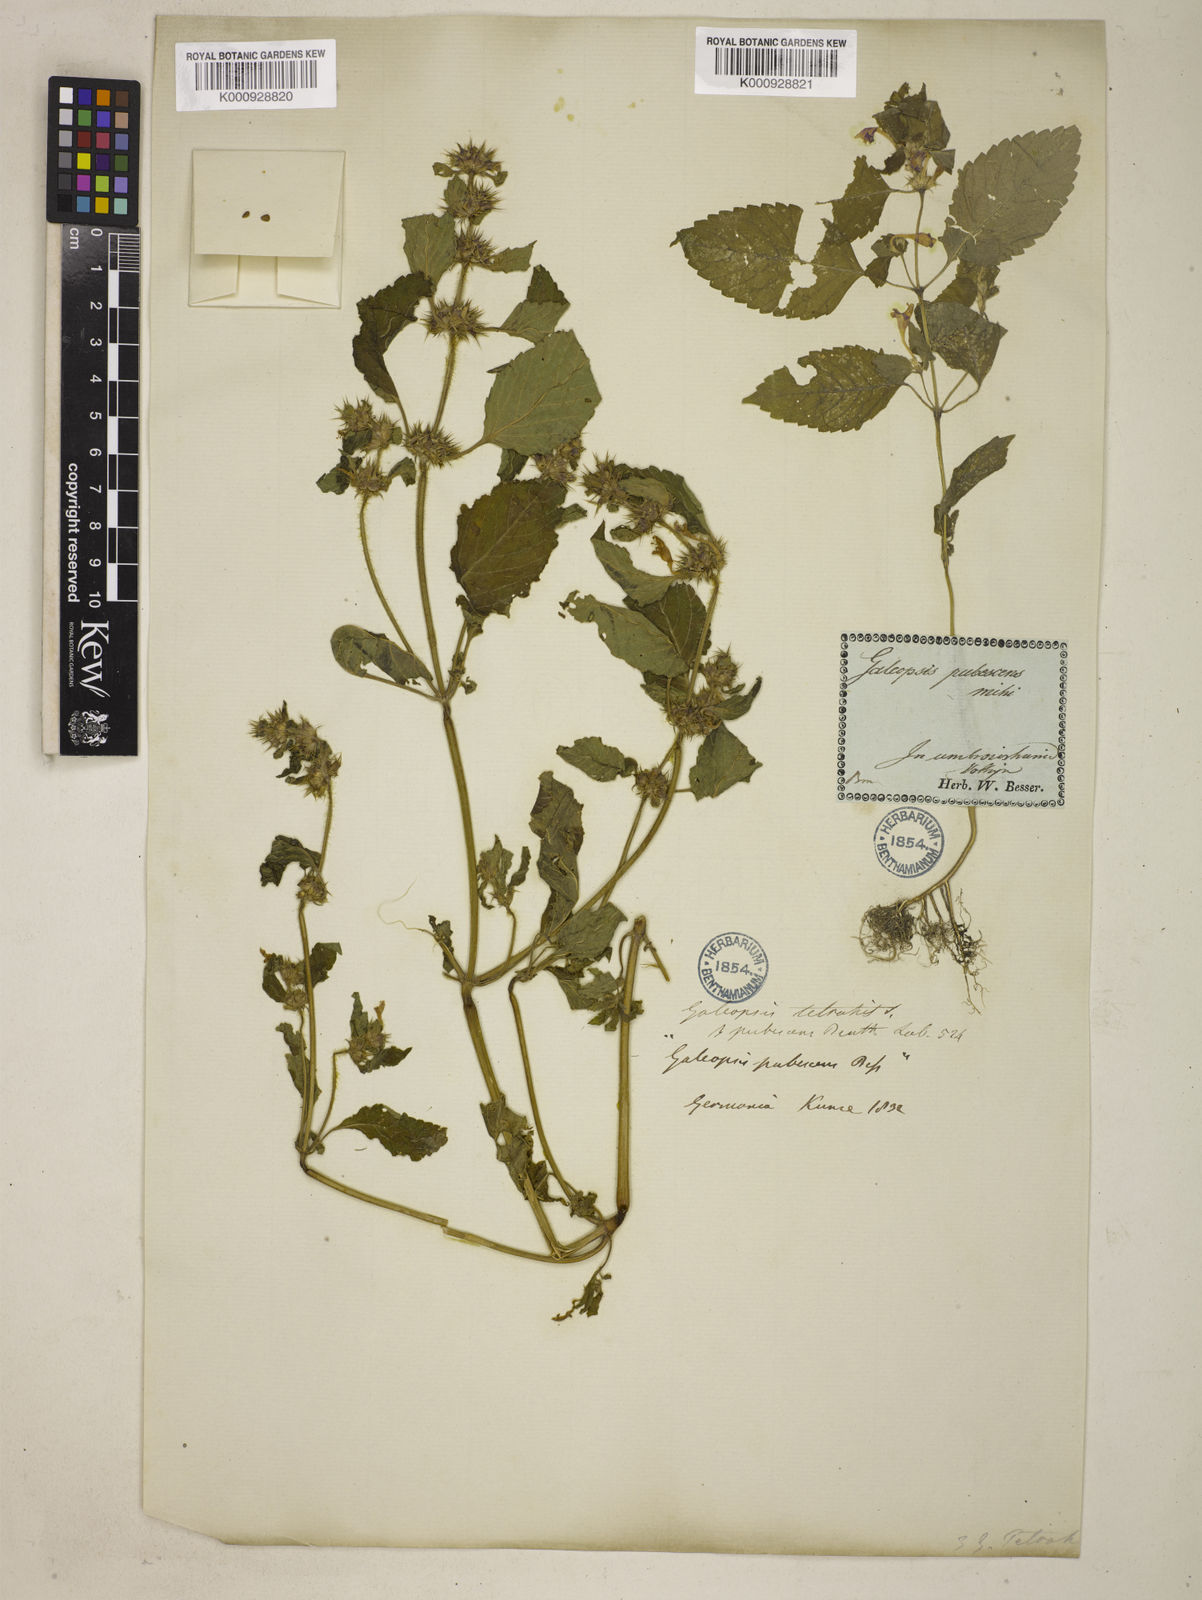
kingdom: Plantae
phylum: Tracheophyta
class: Magnoliopsida
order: Lamiales
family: Lamiaceae
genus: Galeopsis
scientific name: Galeopsis speciosa
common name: Large-flowered hemp-nettle
